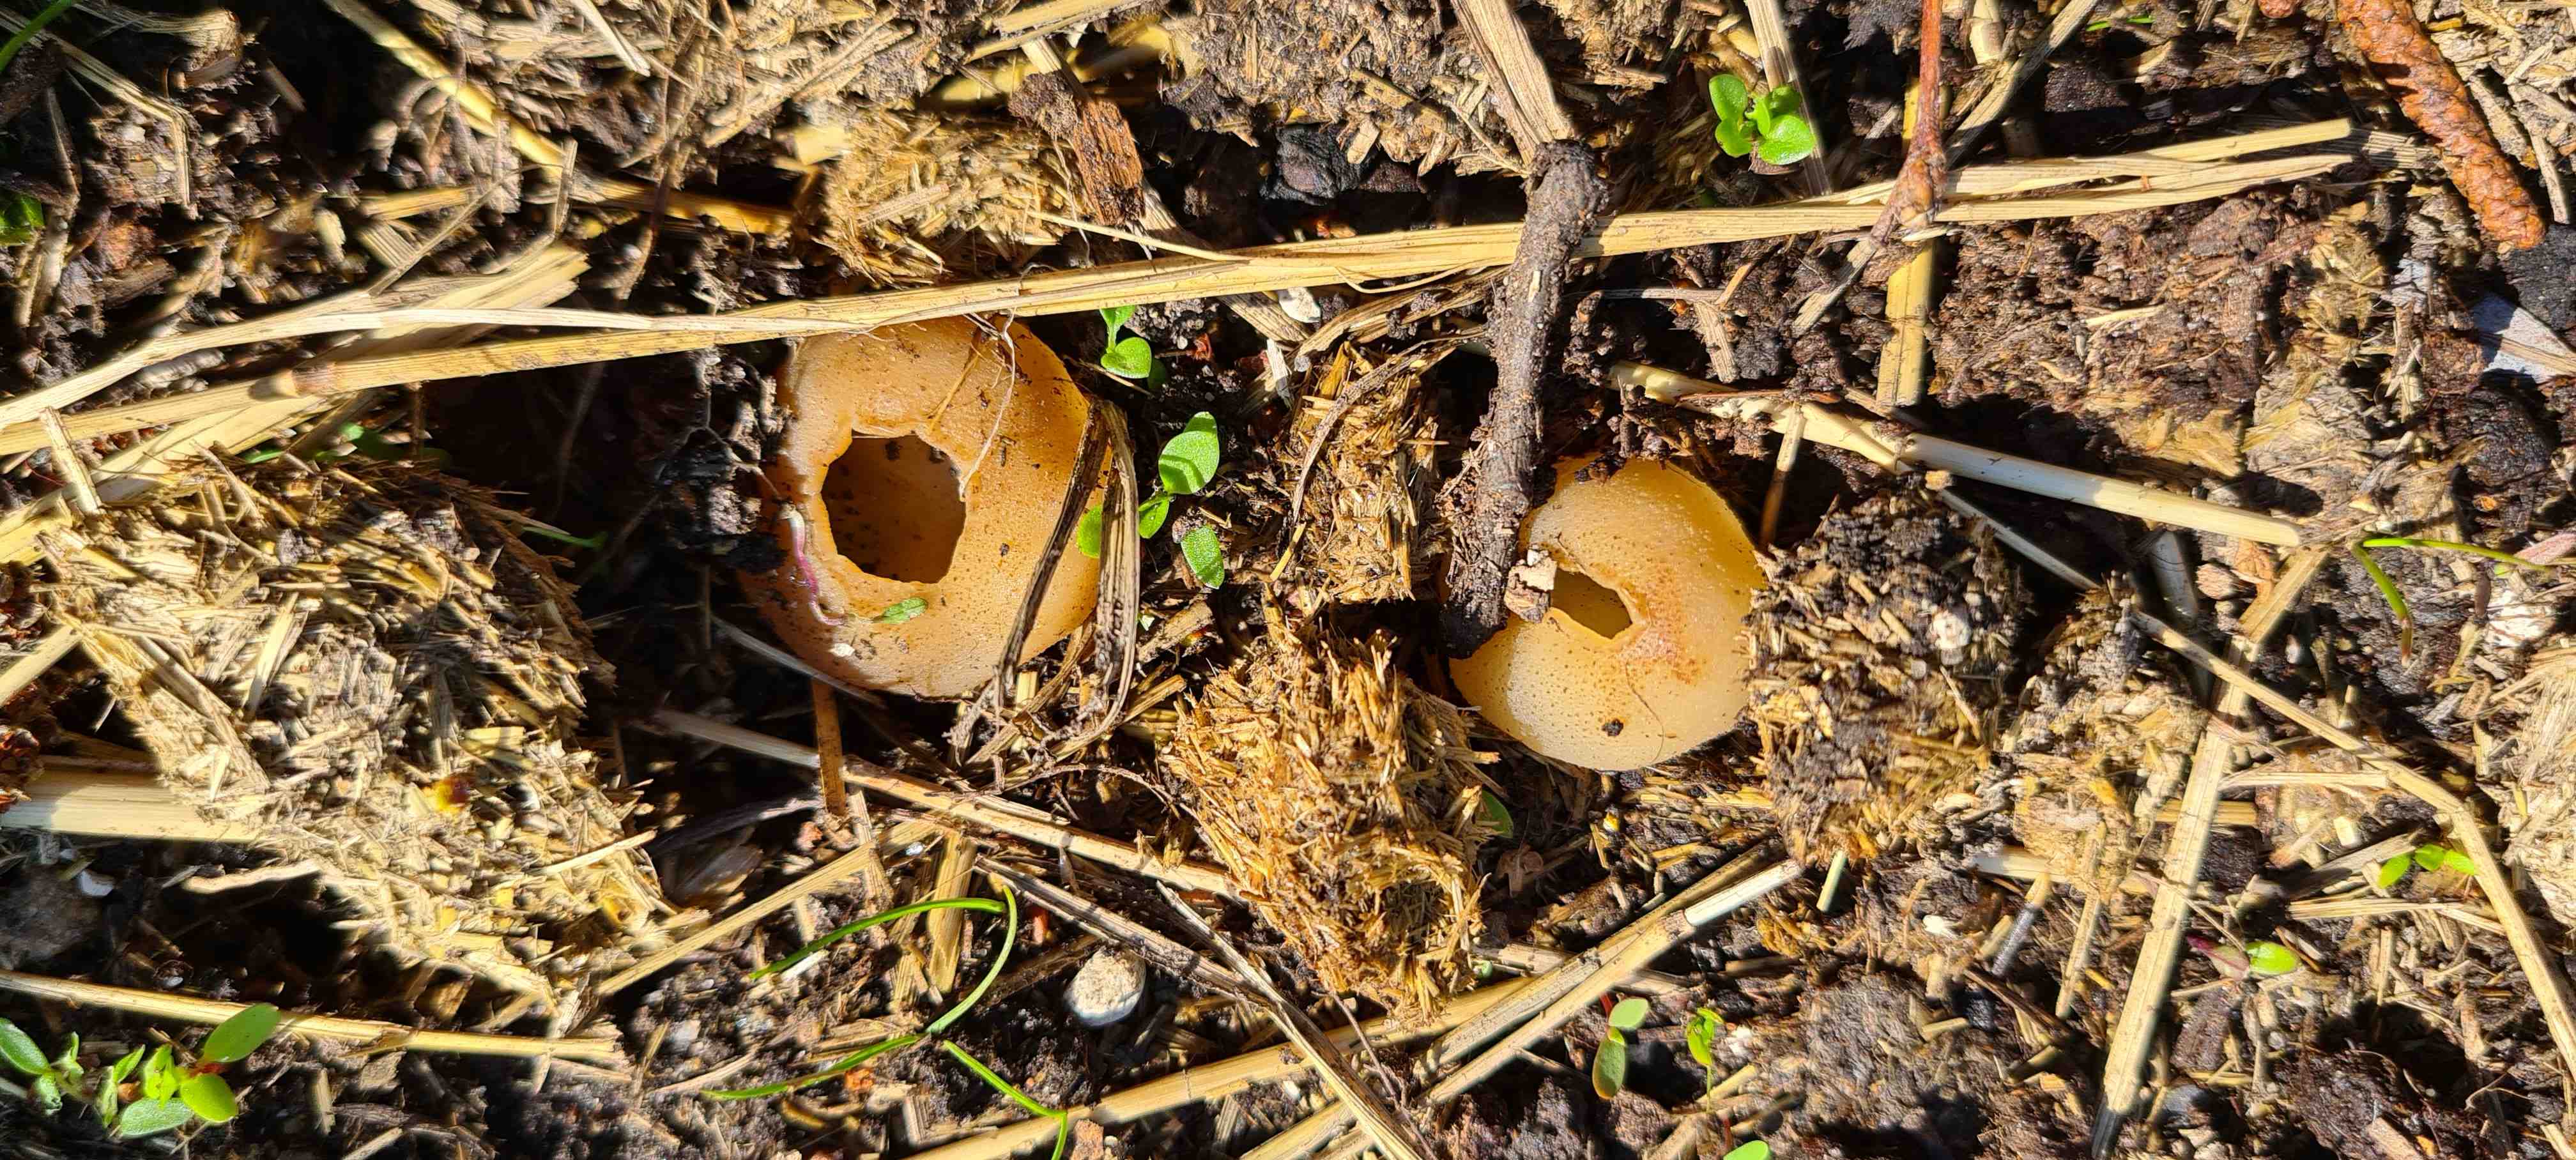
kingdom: Fungi
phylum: Ascomycota
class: Pezizomycetes
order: Pezizales
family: Pezizaceae
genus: Peziza
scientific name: Peziza fimeti
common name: møg-bægersvamp
